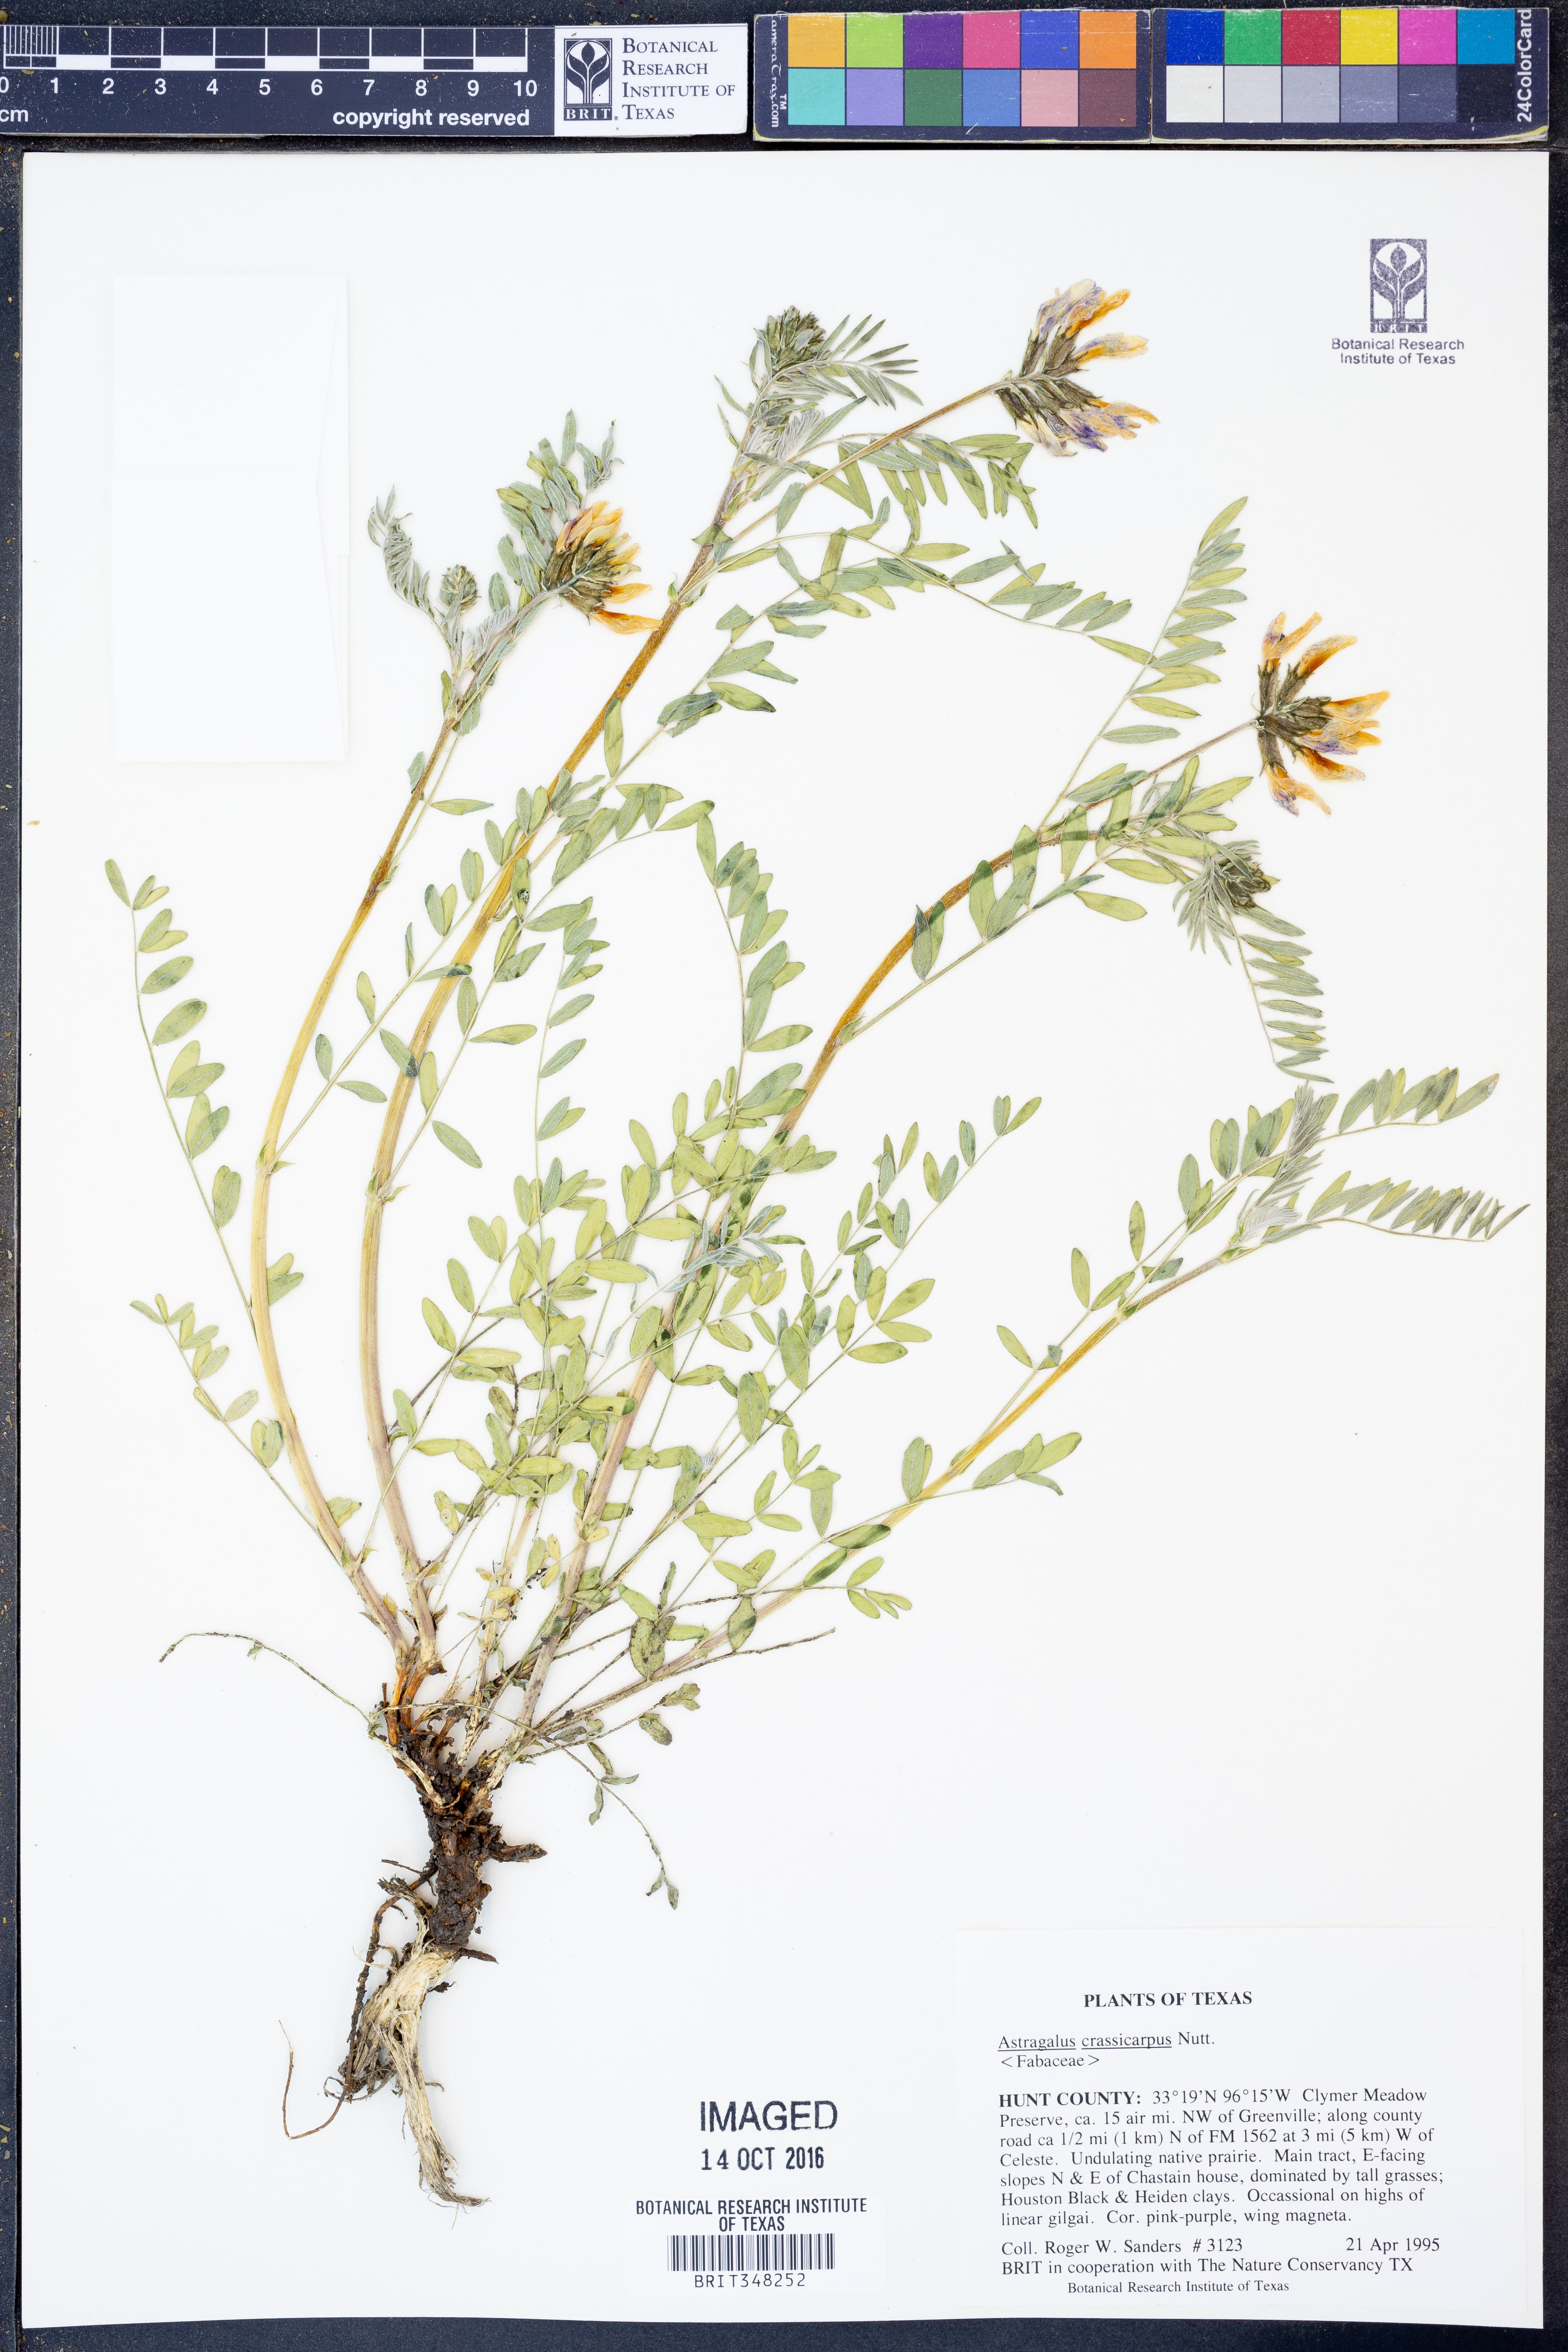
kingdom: Plantae
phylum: Tracheophyta
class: Magnoliopsida
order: Fabales
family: Fabaceae
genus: Astragalus
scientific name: Astragalus crassicarpus
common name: Ground-plum milk-vetch
